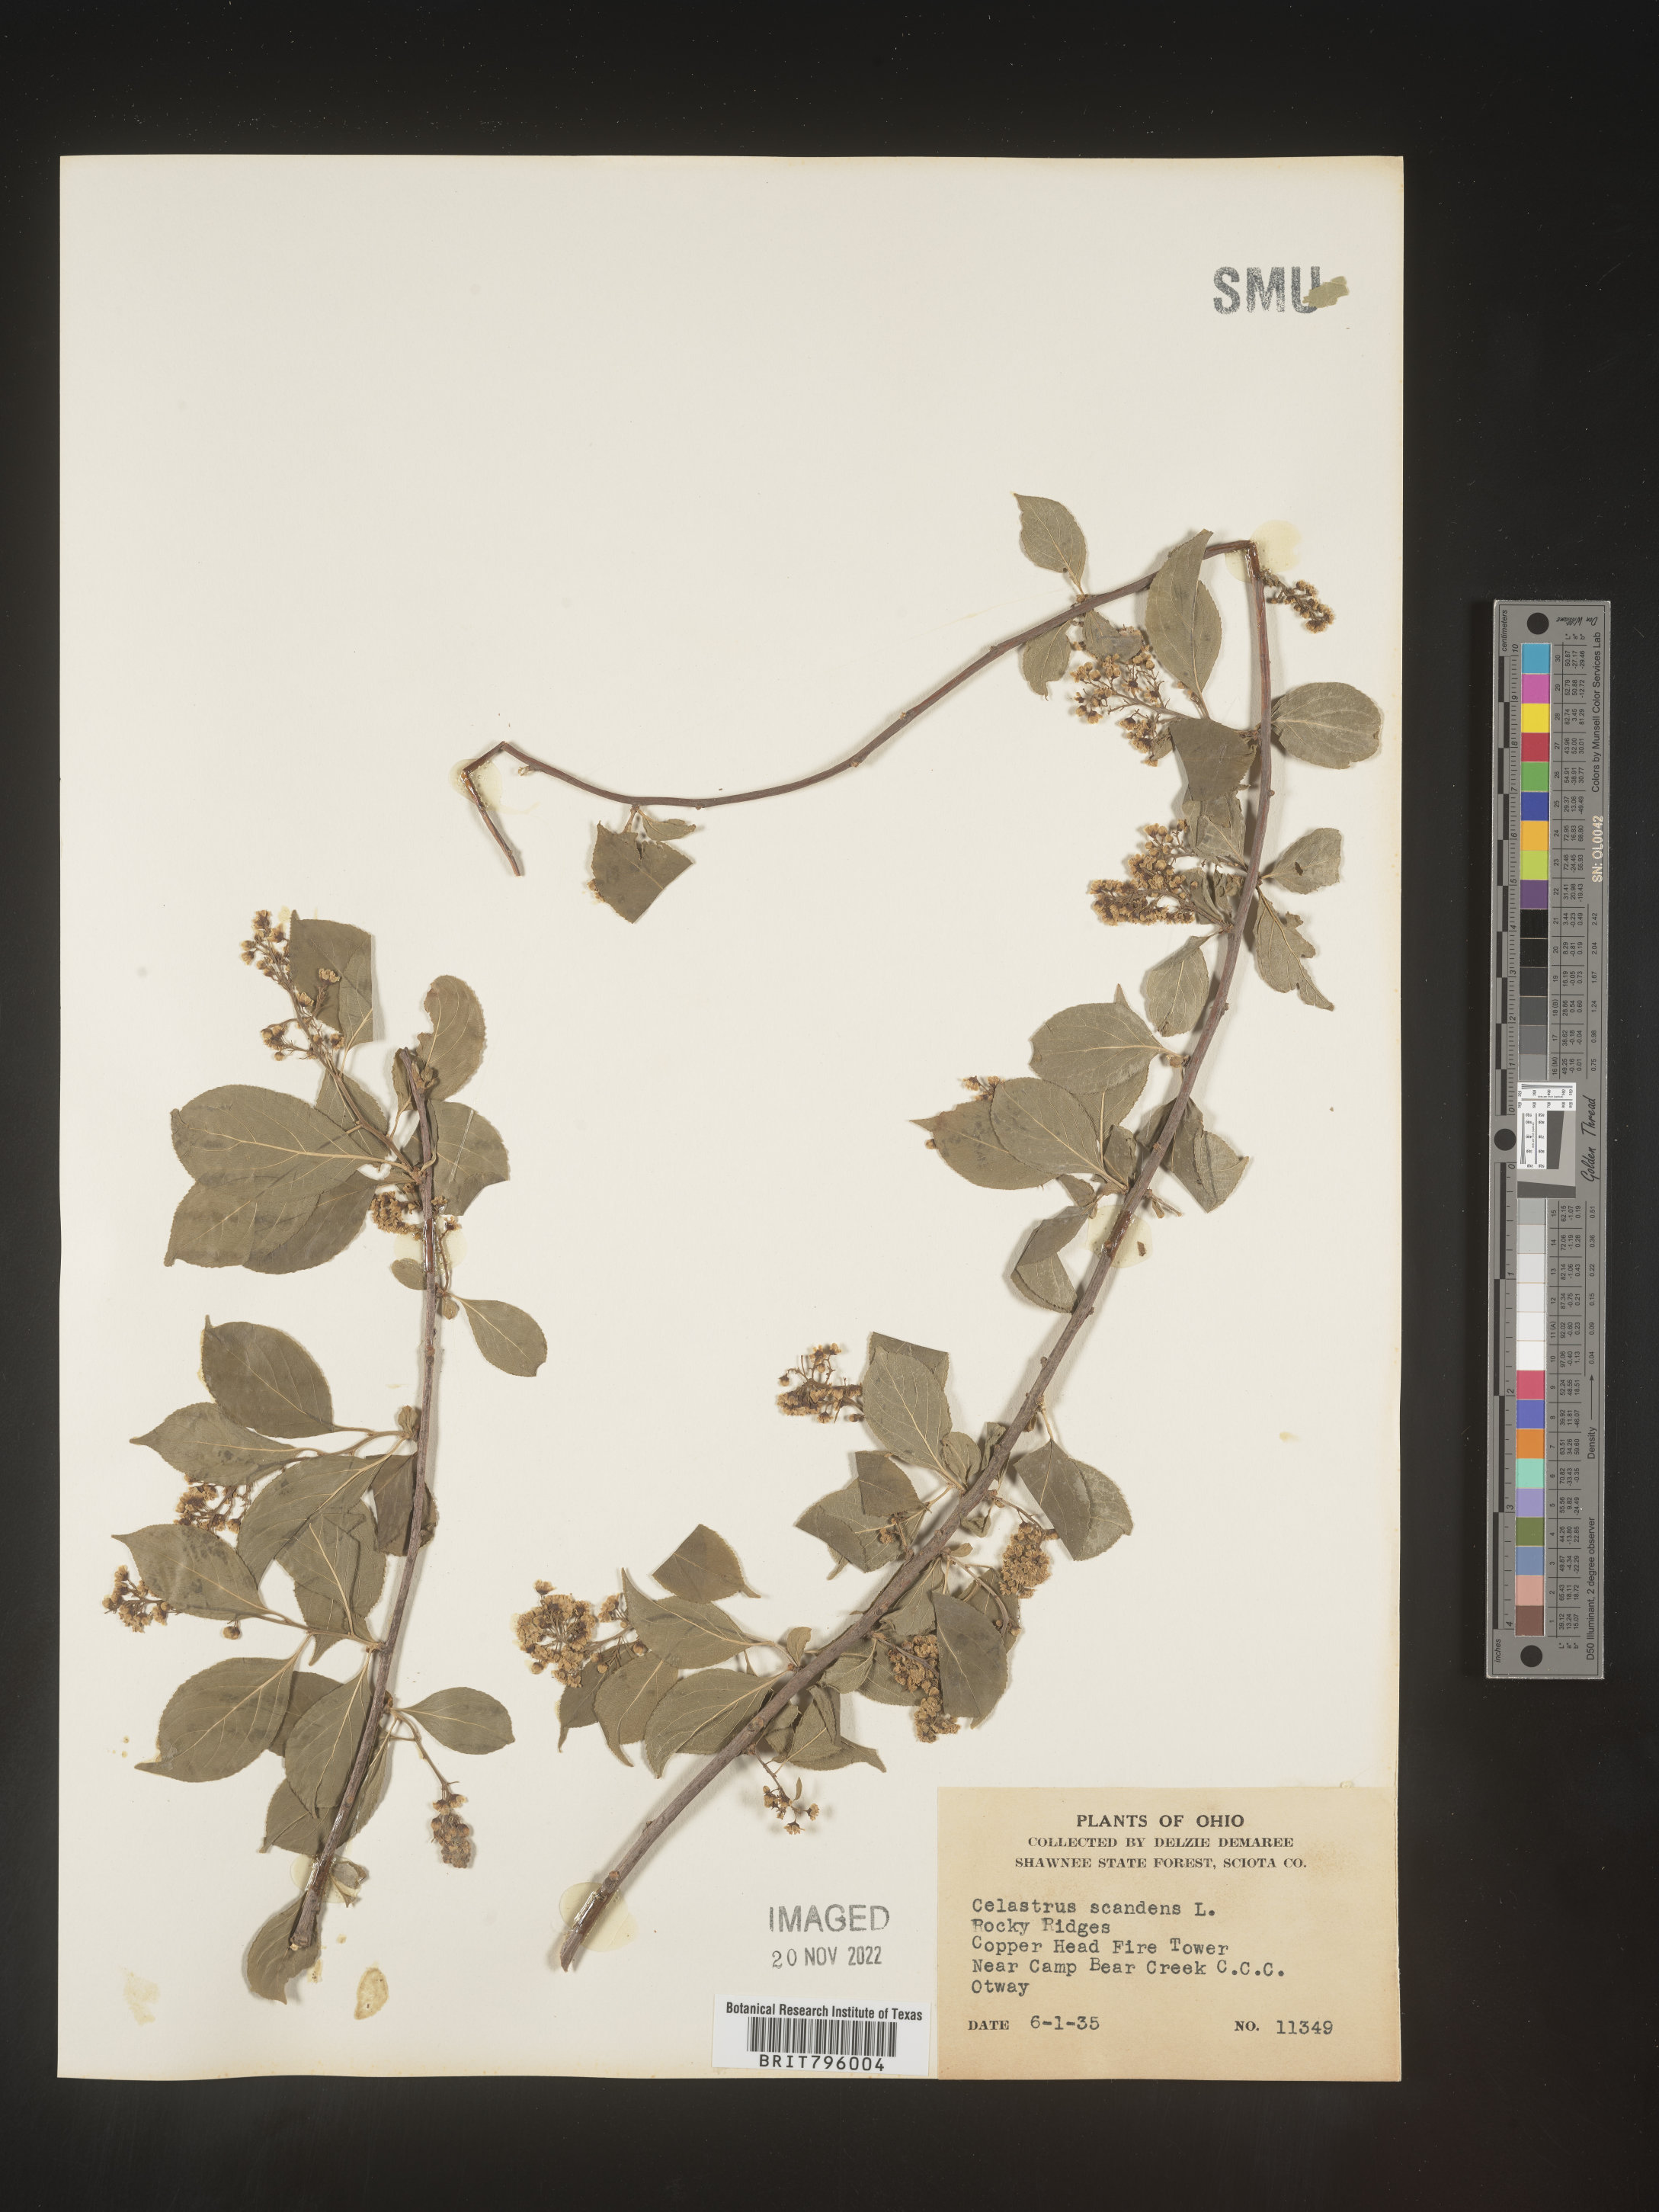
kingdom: Plantae
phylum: Tracheophyta
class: Magnoliopsida
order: Celastrales
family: Celastraceae
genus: Celastrus
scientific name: Celastrus scandens
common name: American bittersweet
